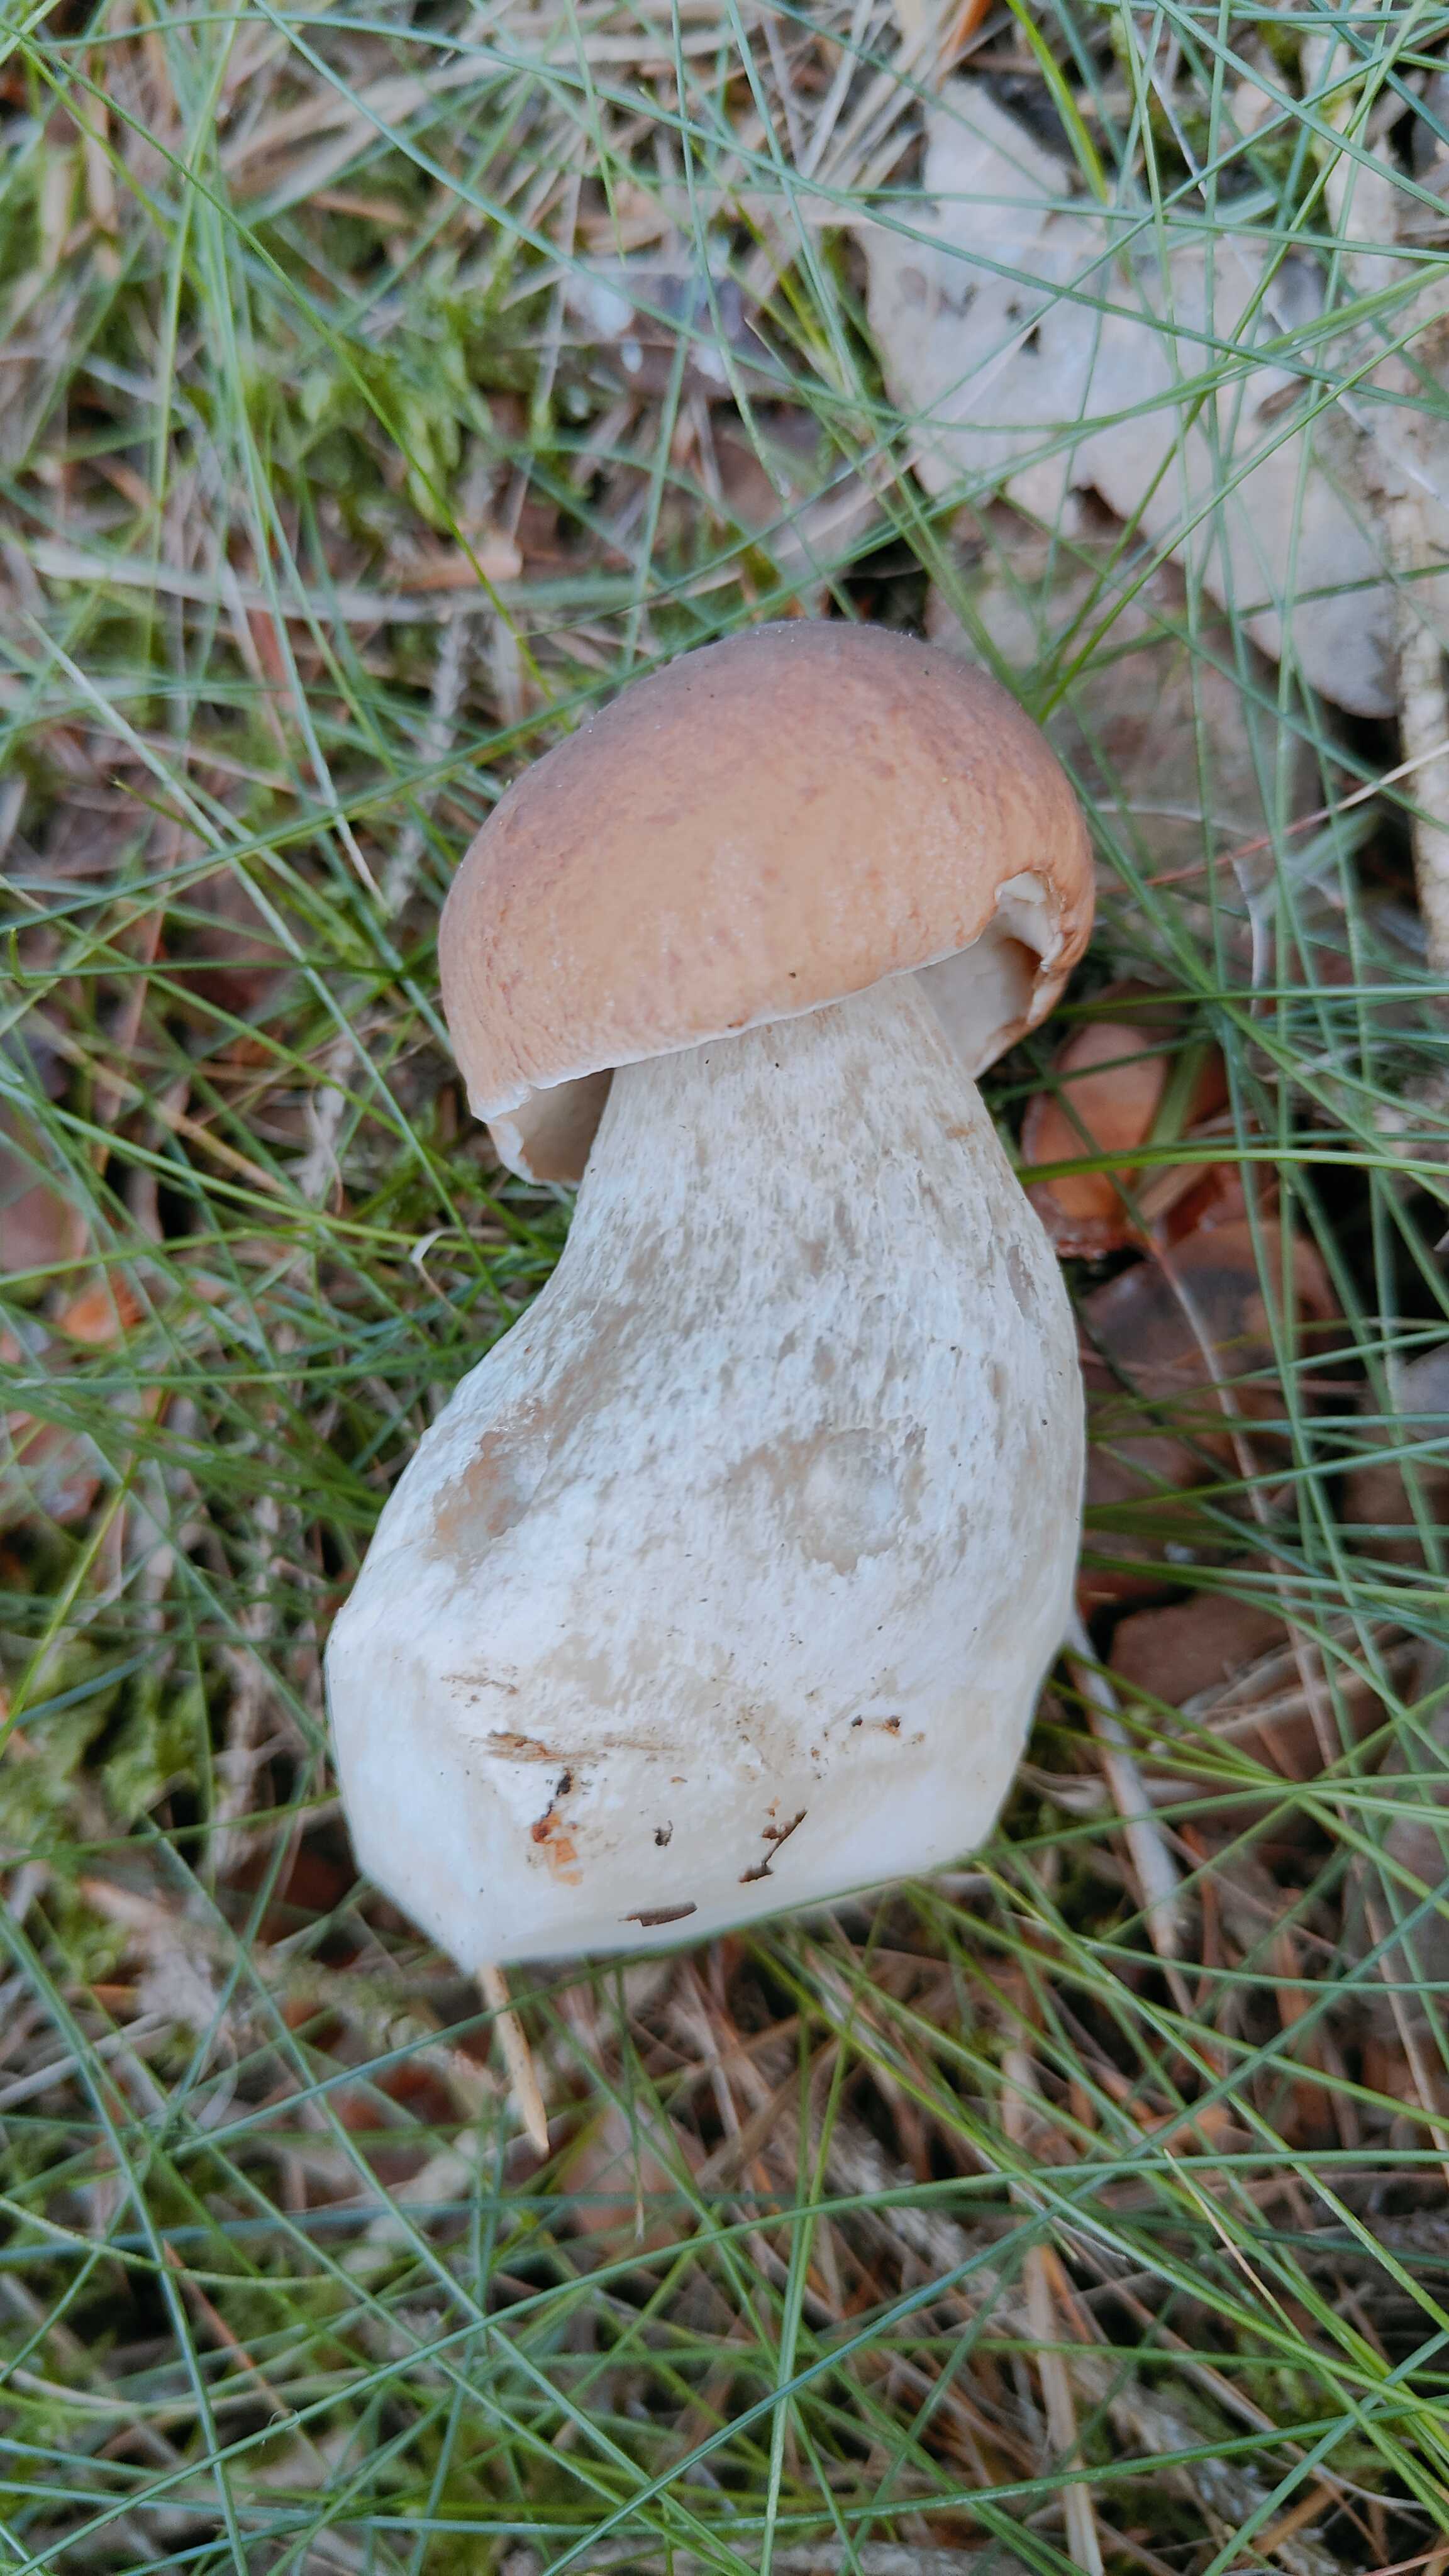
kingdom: Fungi
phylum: Basidiomycota
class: Agaricomycetes
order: Boletales
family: Boletaceae
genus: Boletus
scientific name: Boletus edulis
